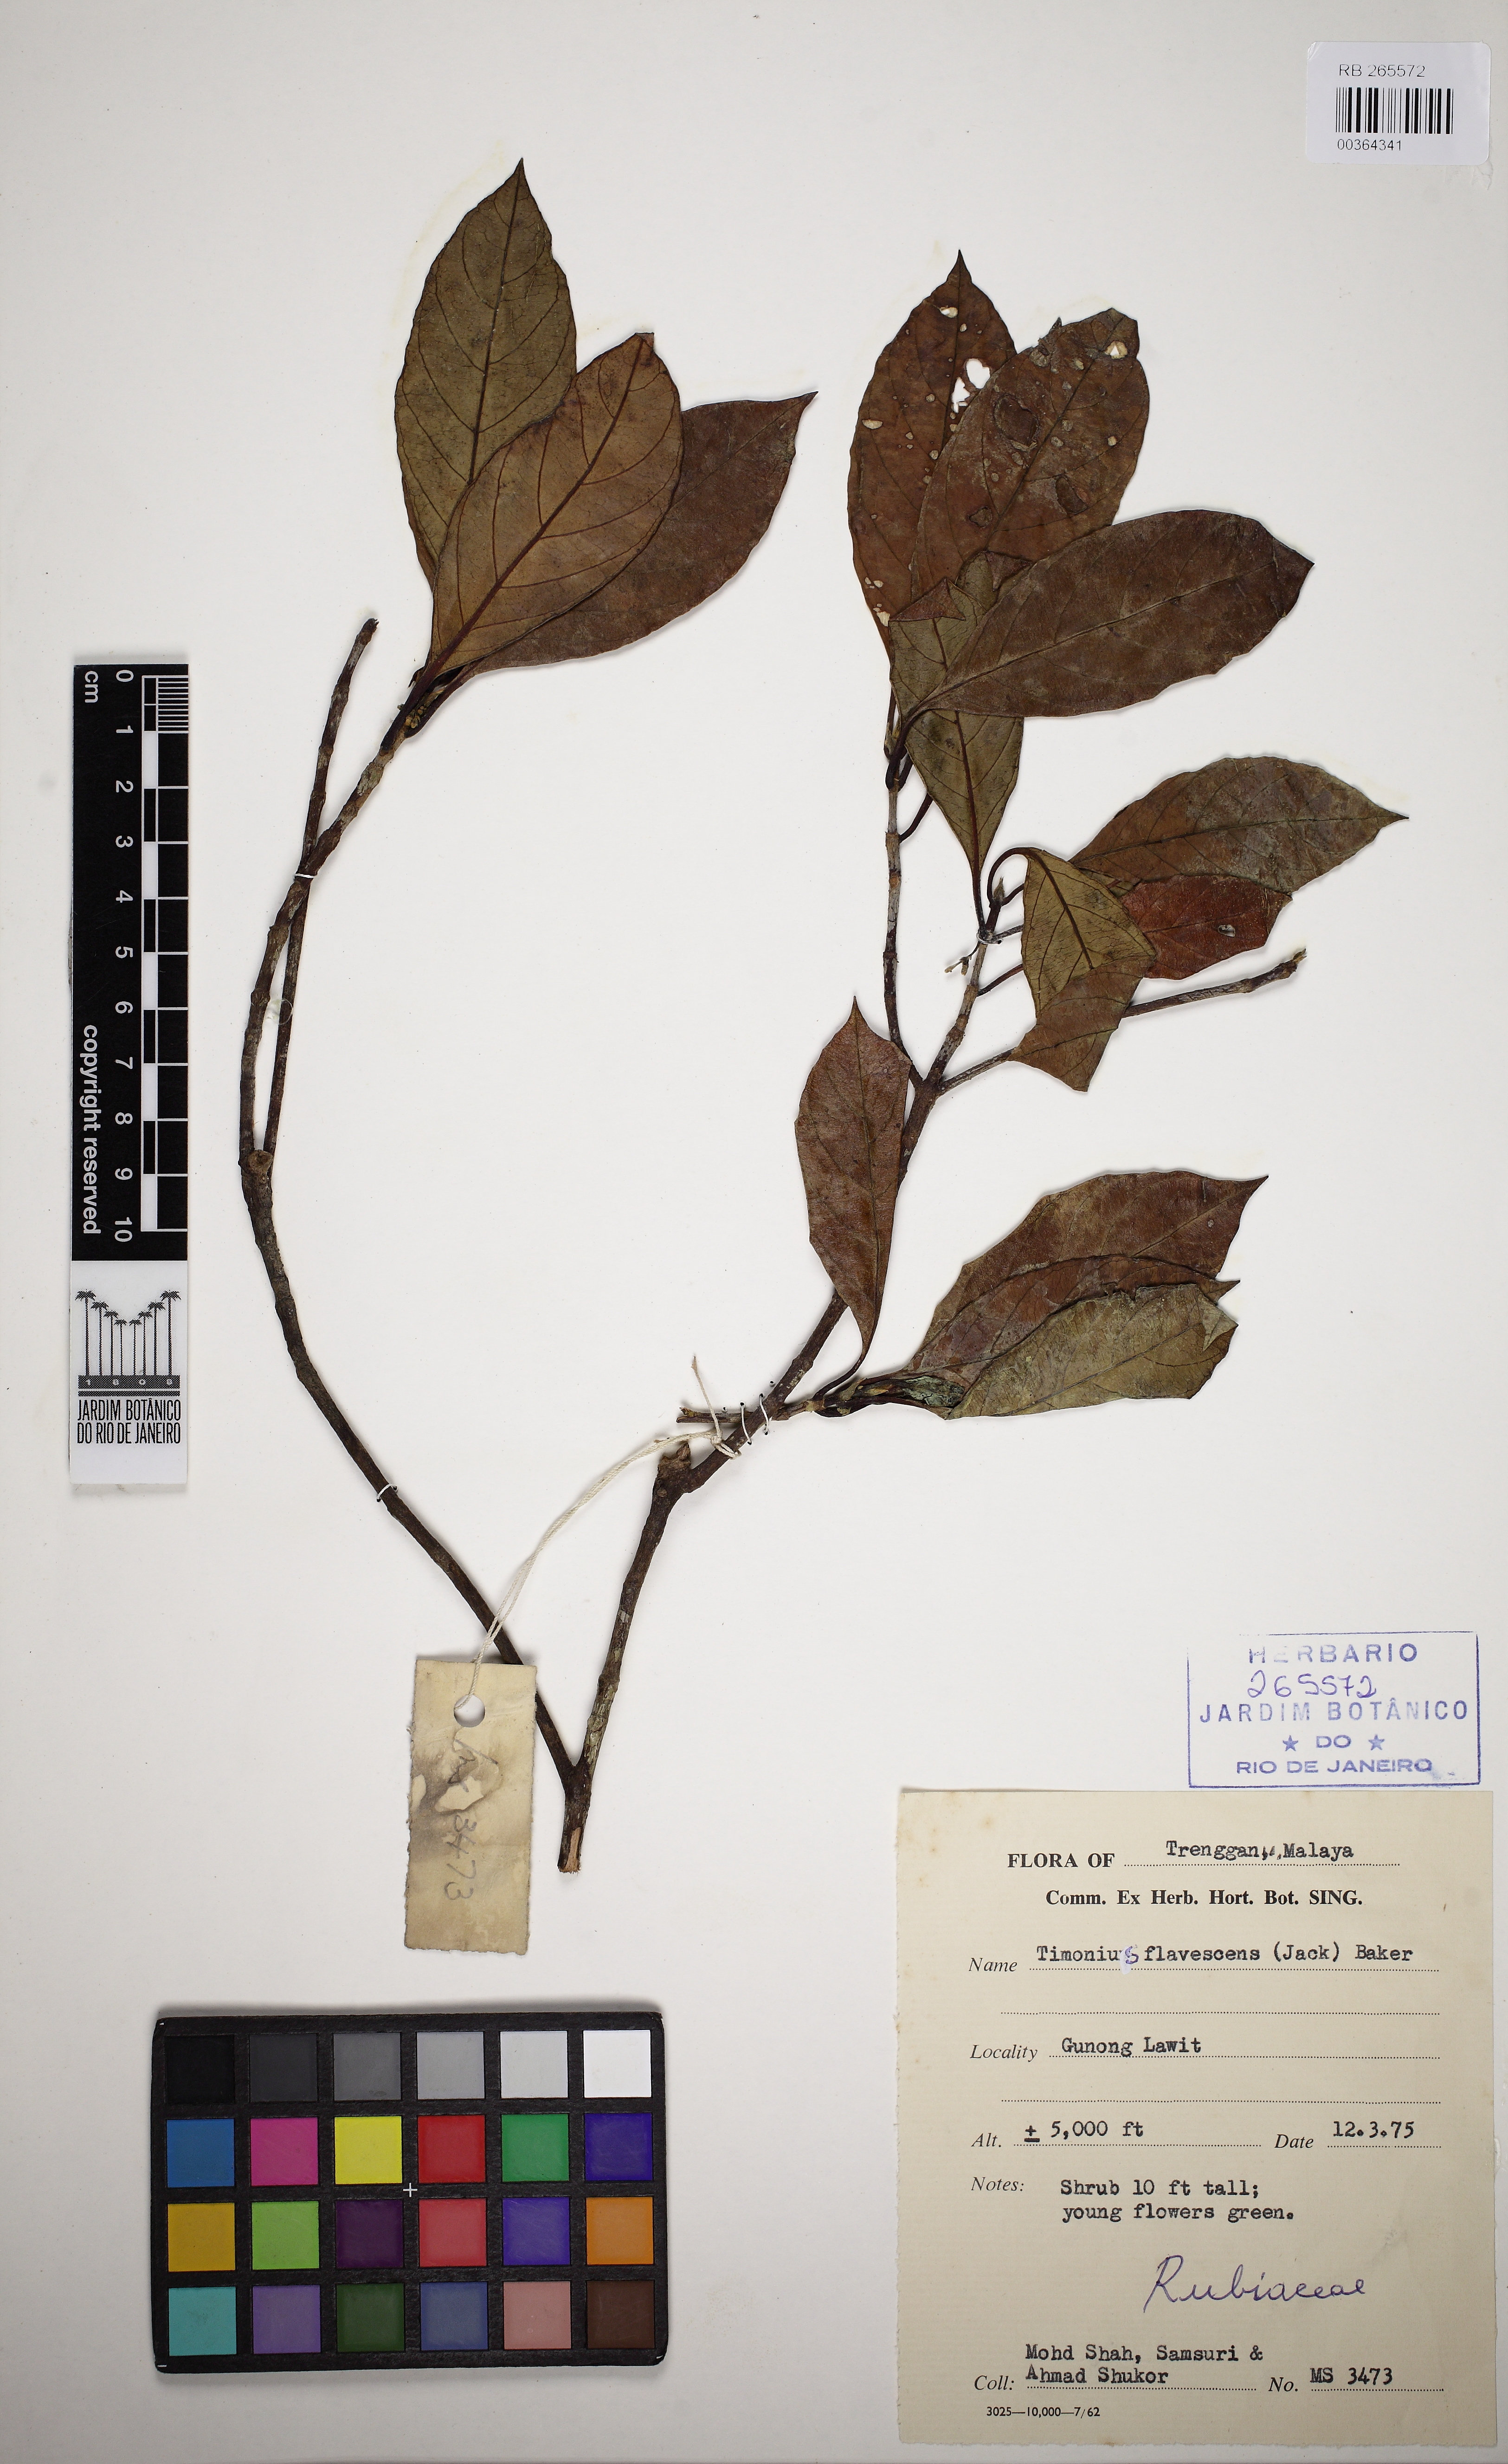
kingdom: Plantae
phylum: Tracheophyta
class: Magnoliopsida
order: Gentianales
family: Rubiaceae
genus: Timonius
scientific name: Timonius flavescens
